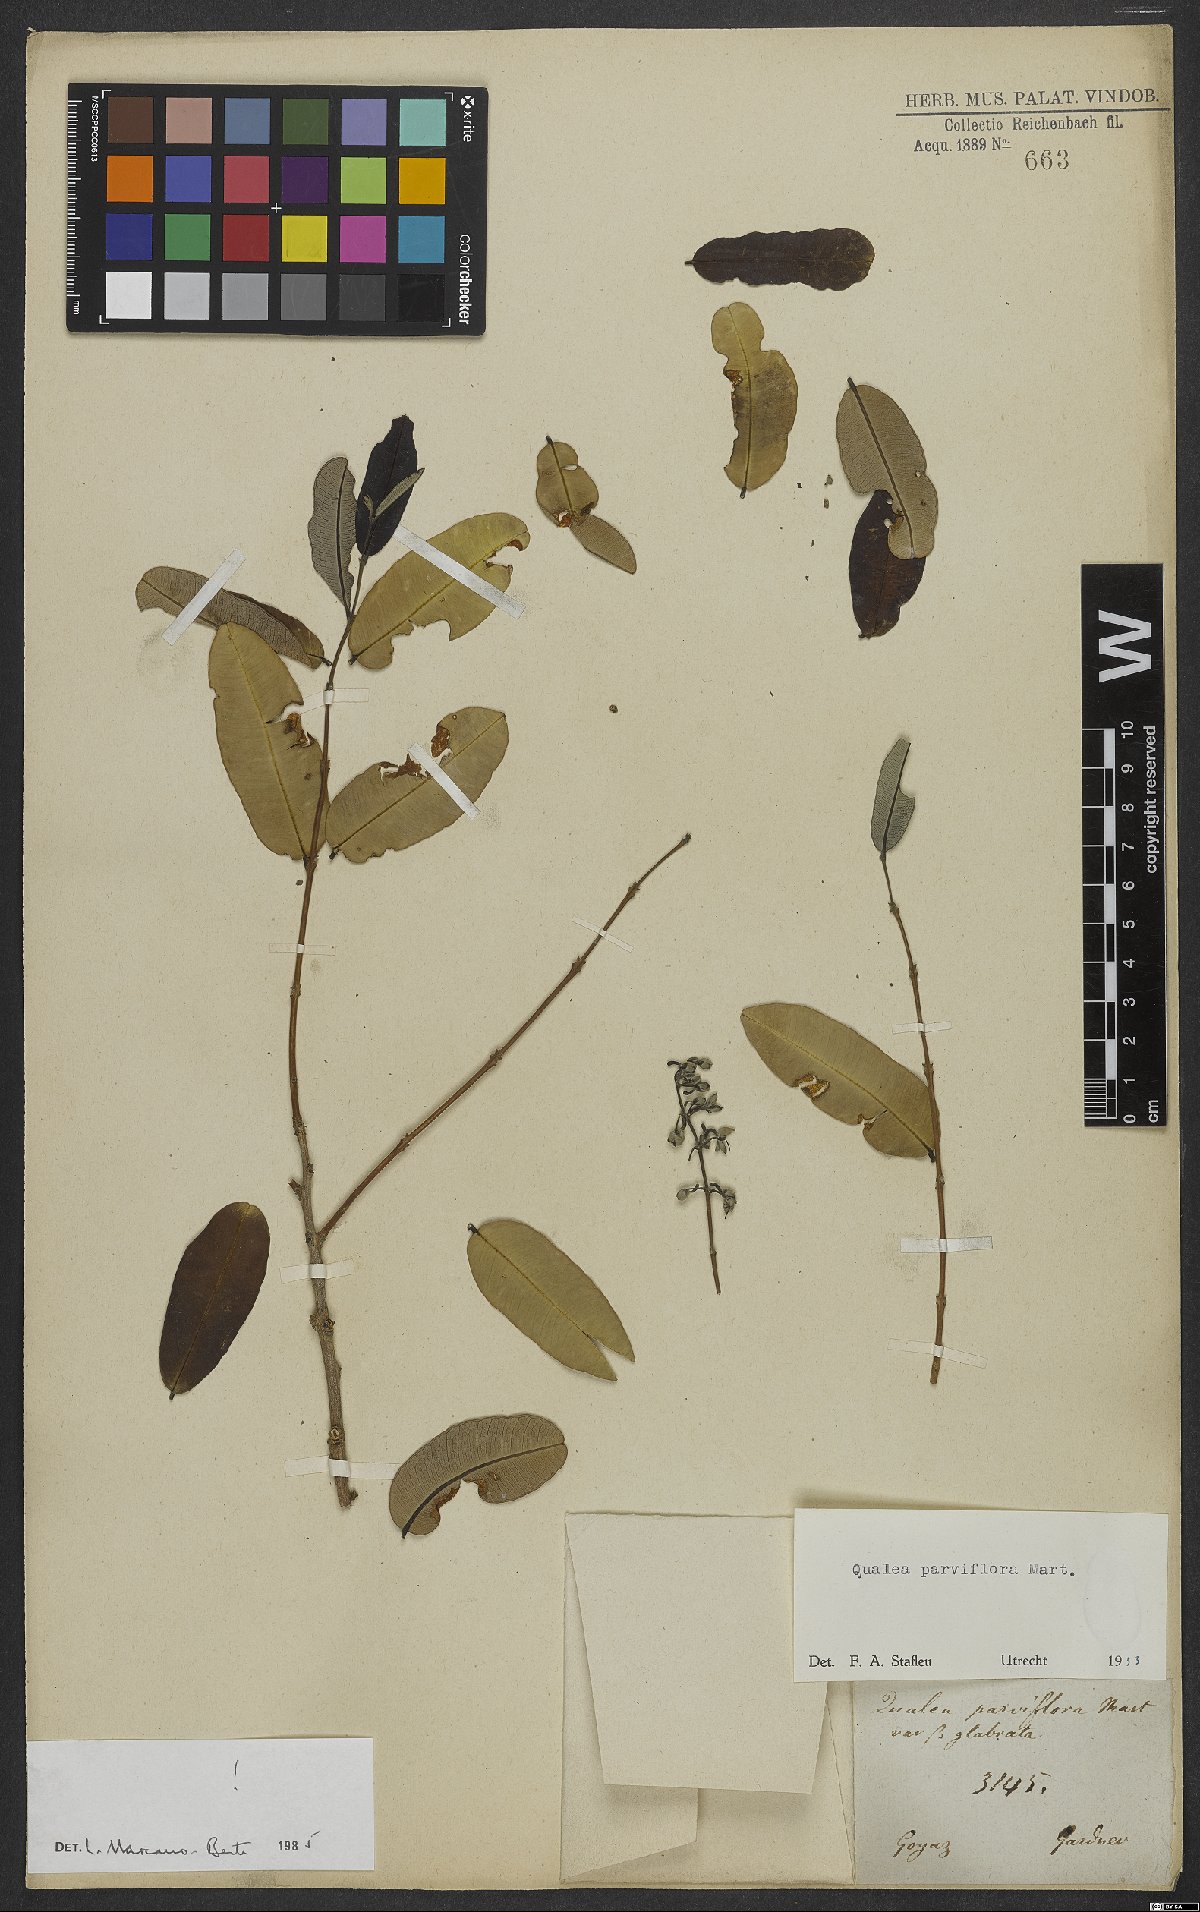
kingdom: Plantae
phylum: Tracheophyta
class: Magnoliopsida
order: Myrtales
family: Vochysiaceae
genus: Qualea
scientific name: Qualea parviflora
